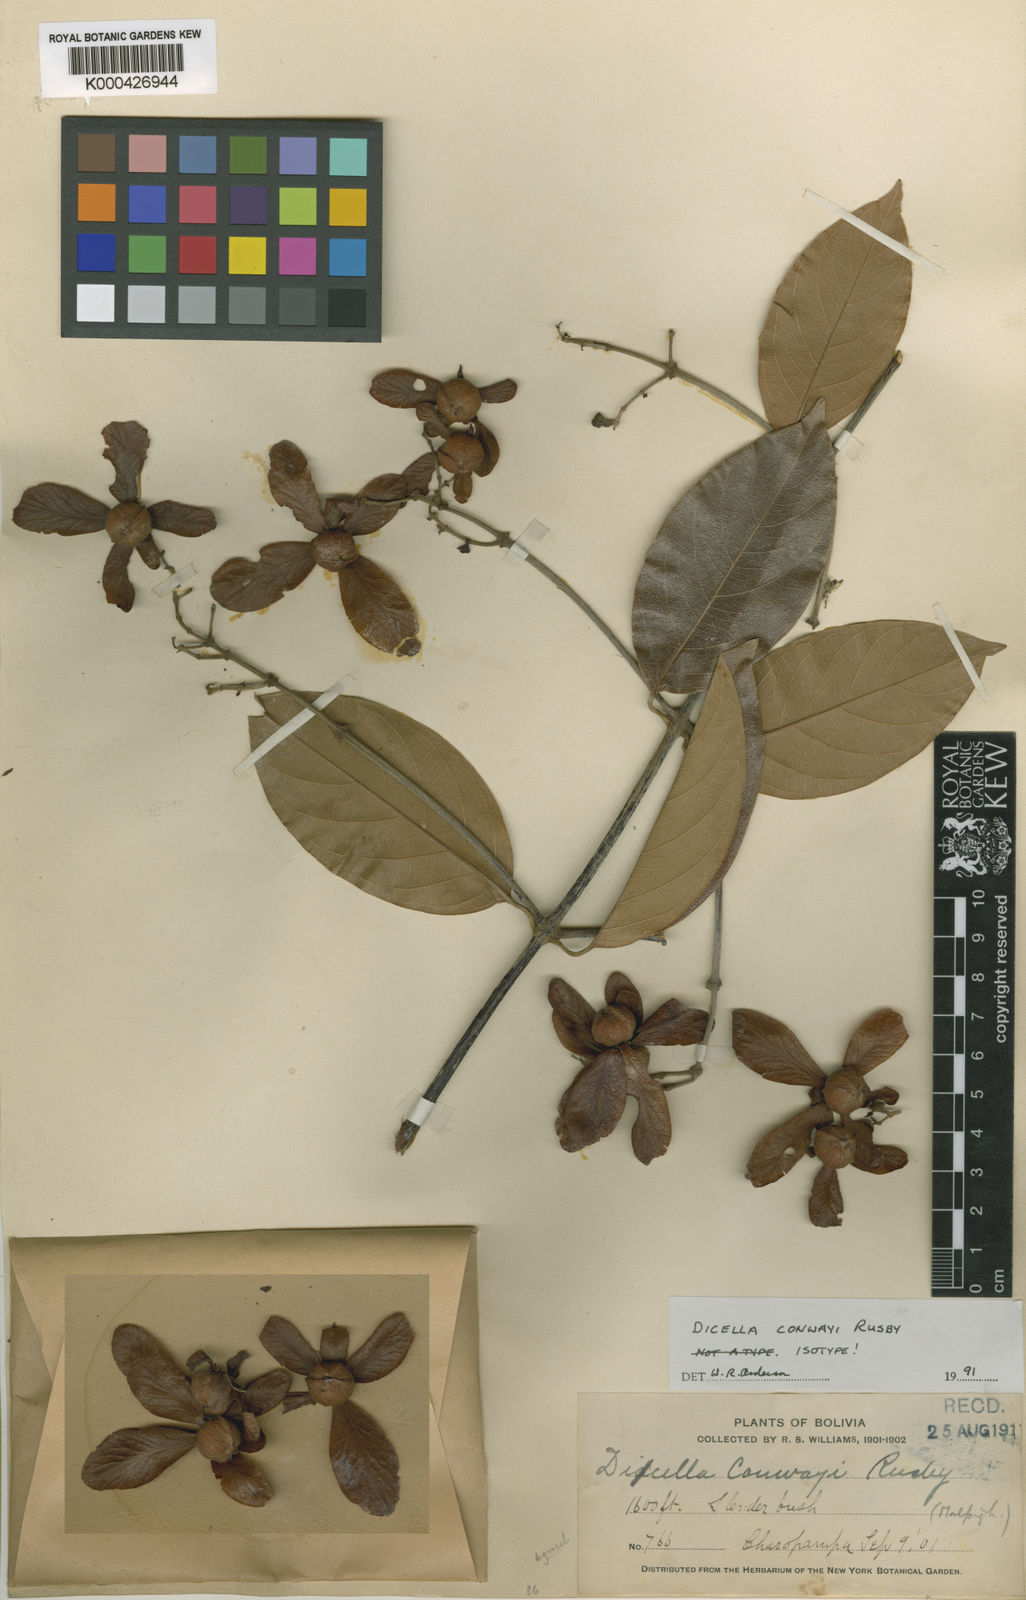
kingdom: Plantae
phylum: Tracheophyta
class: Magnoliopsida
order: Malpighiales
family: Malpighiaceae
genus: Dicella
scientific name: Dicella conwayi
